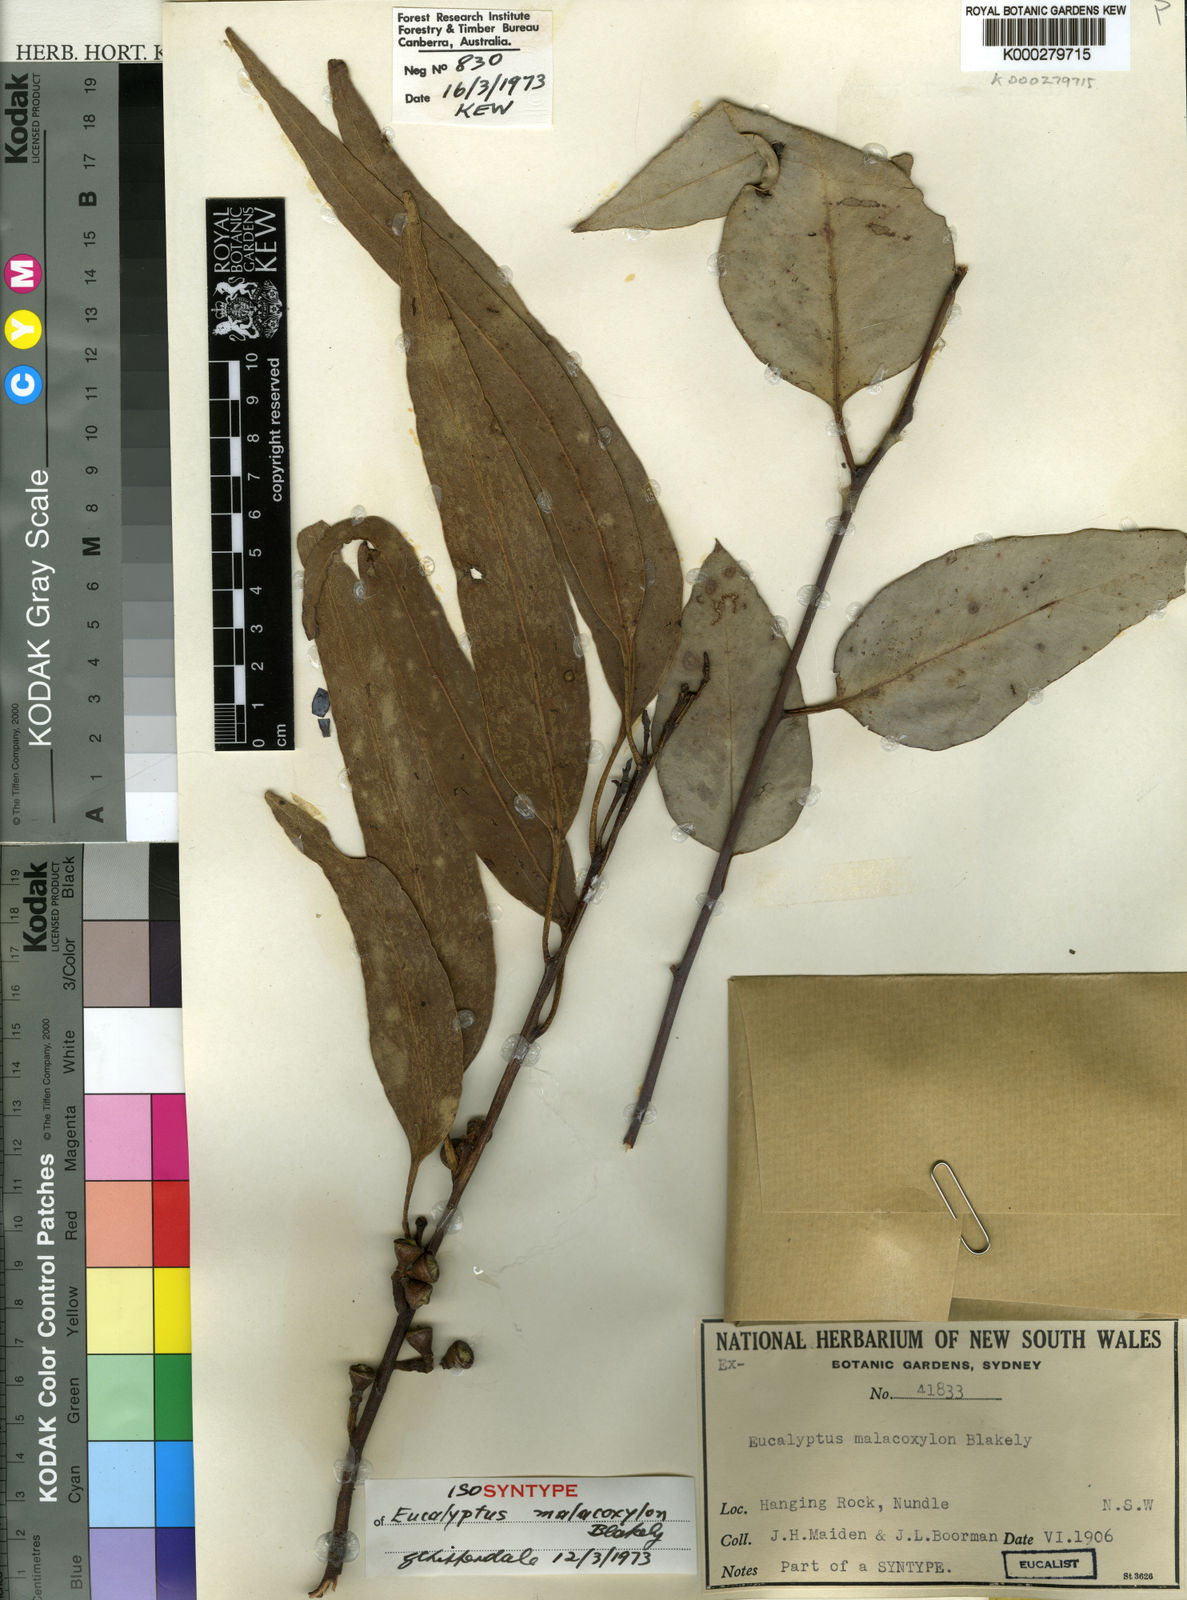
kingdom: Plantae
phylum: Tracheophyta
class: Magnoliopsida
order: Myrtales
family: Myrtaceae
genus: Eucalyptus
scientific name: Eucalyptus malacoxylon
